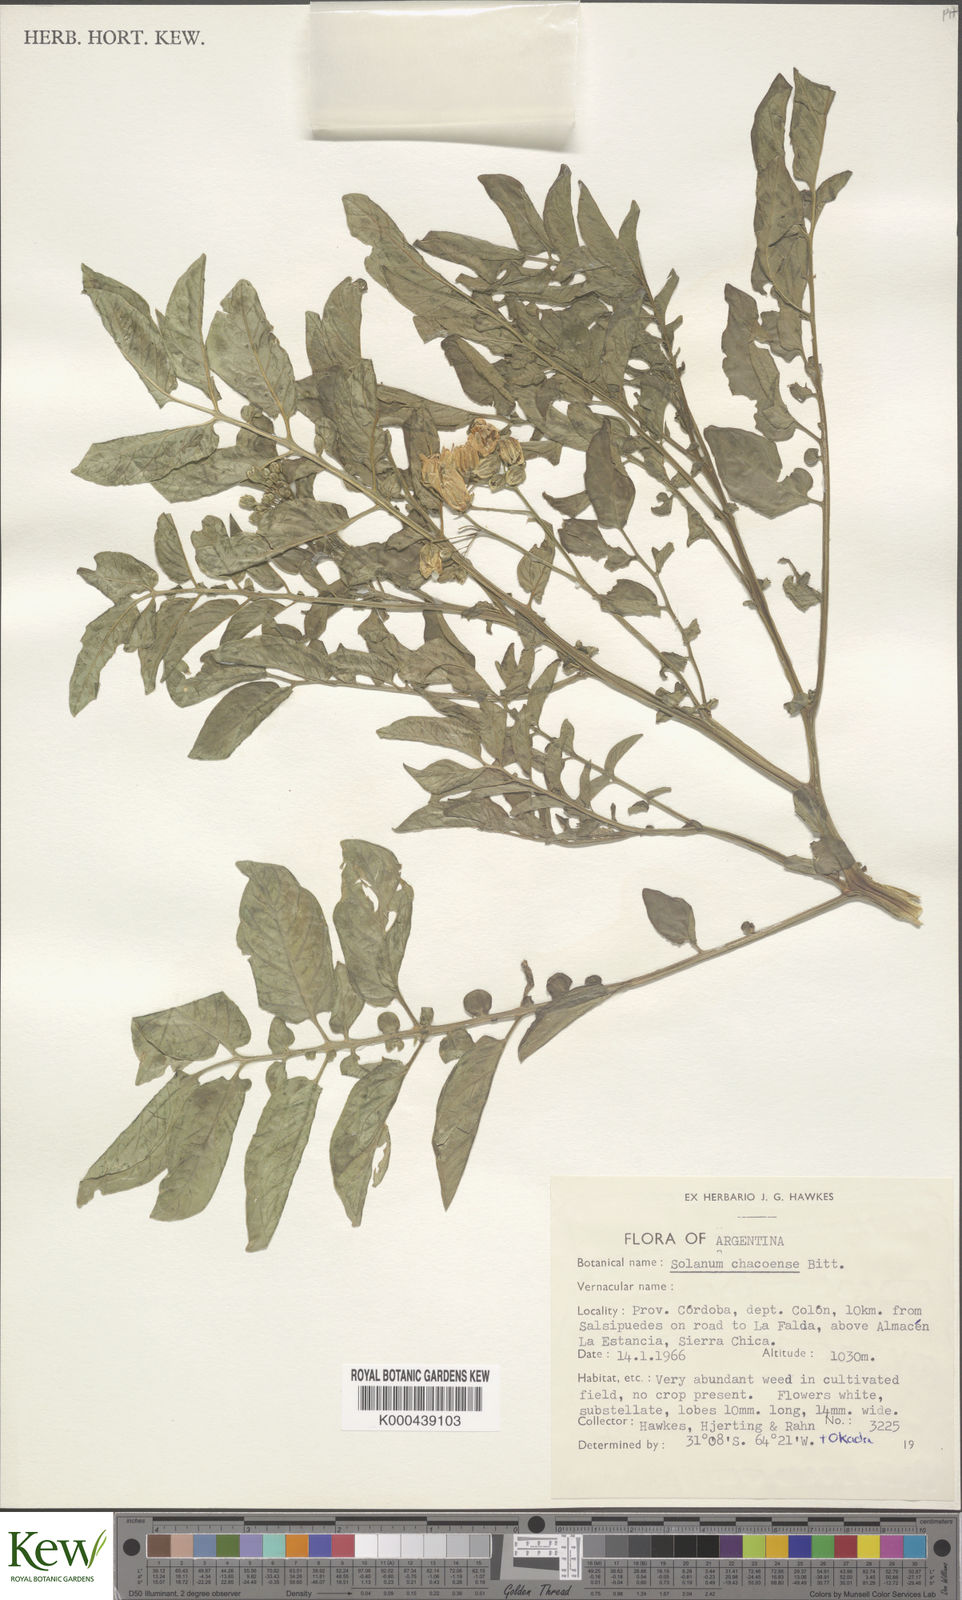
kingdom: Plantae
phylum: Tracheophyta
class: Magnoliopsida
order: Solanales
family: Solanaceae
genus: Solanum
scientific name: Solanum chacoense
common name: Chaco potato
